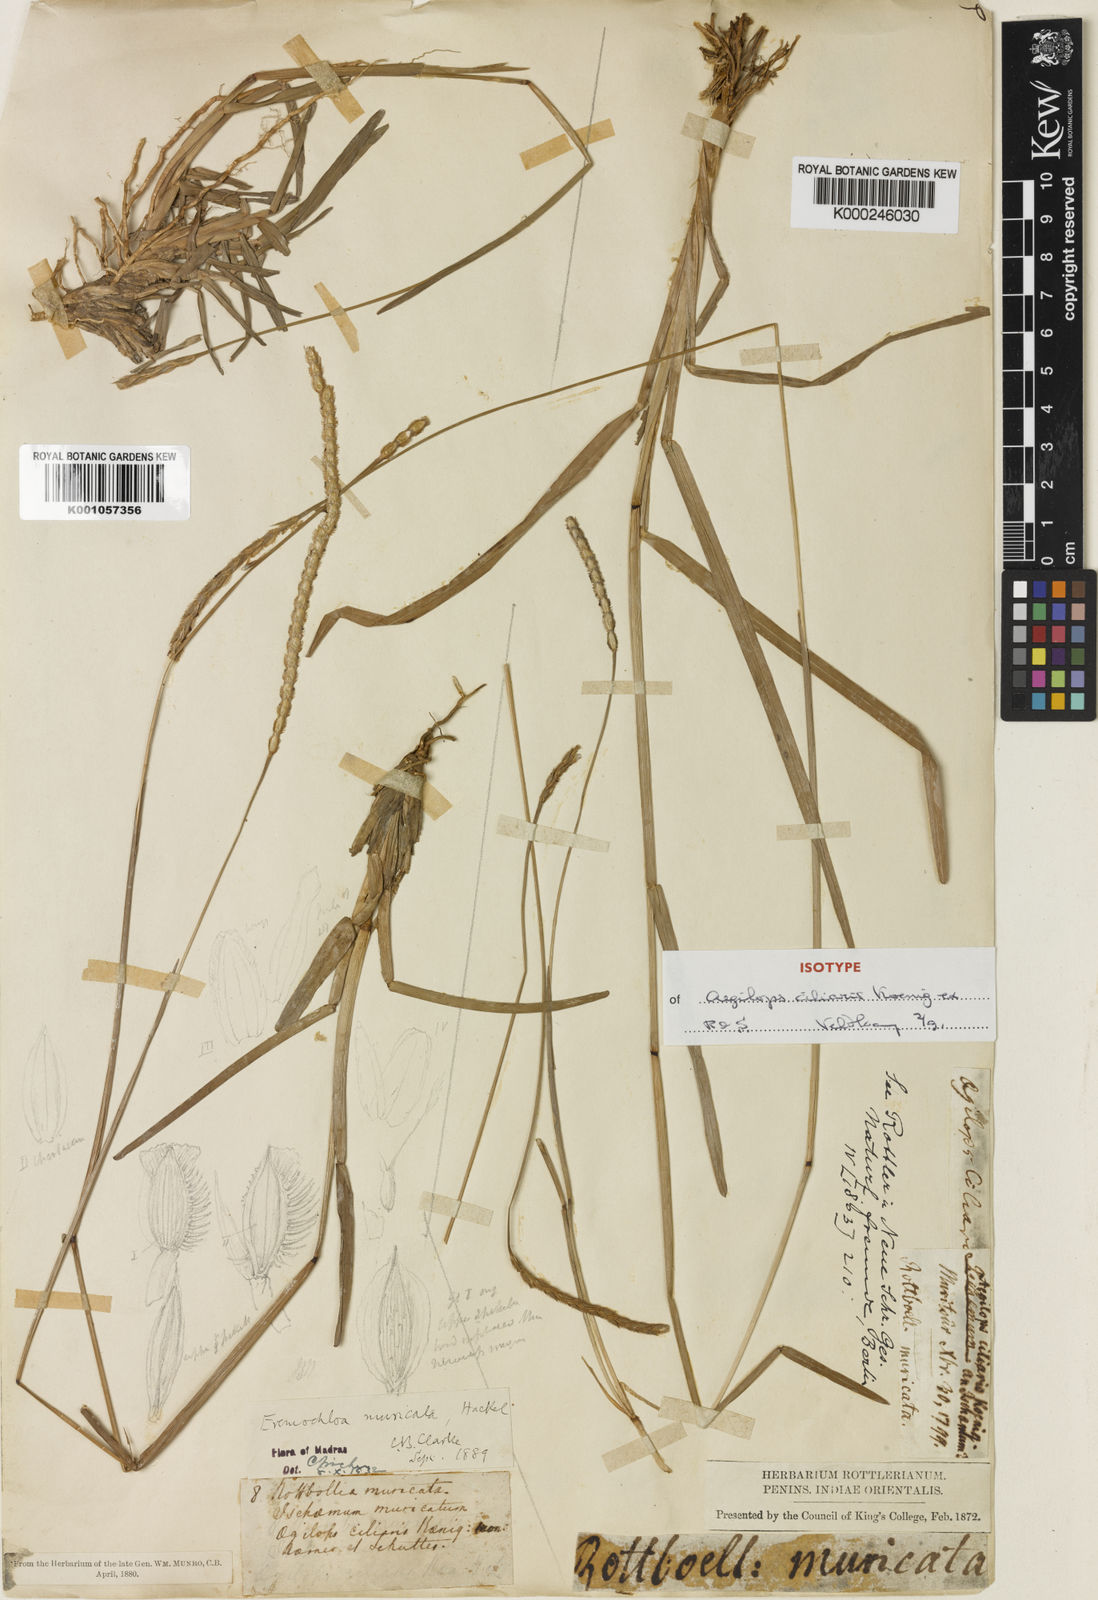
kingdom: Plantae
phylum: Tracheophyta
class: Liliopsida
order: Poales
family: Poaceae
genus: Eremochloa
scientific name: Eremochloa pectinata
